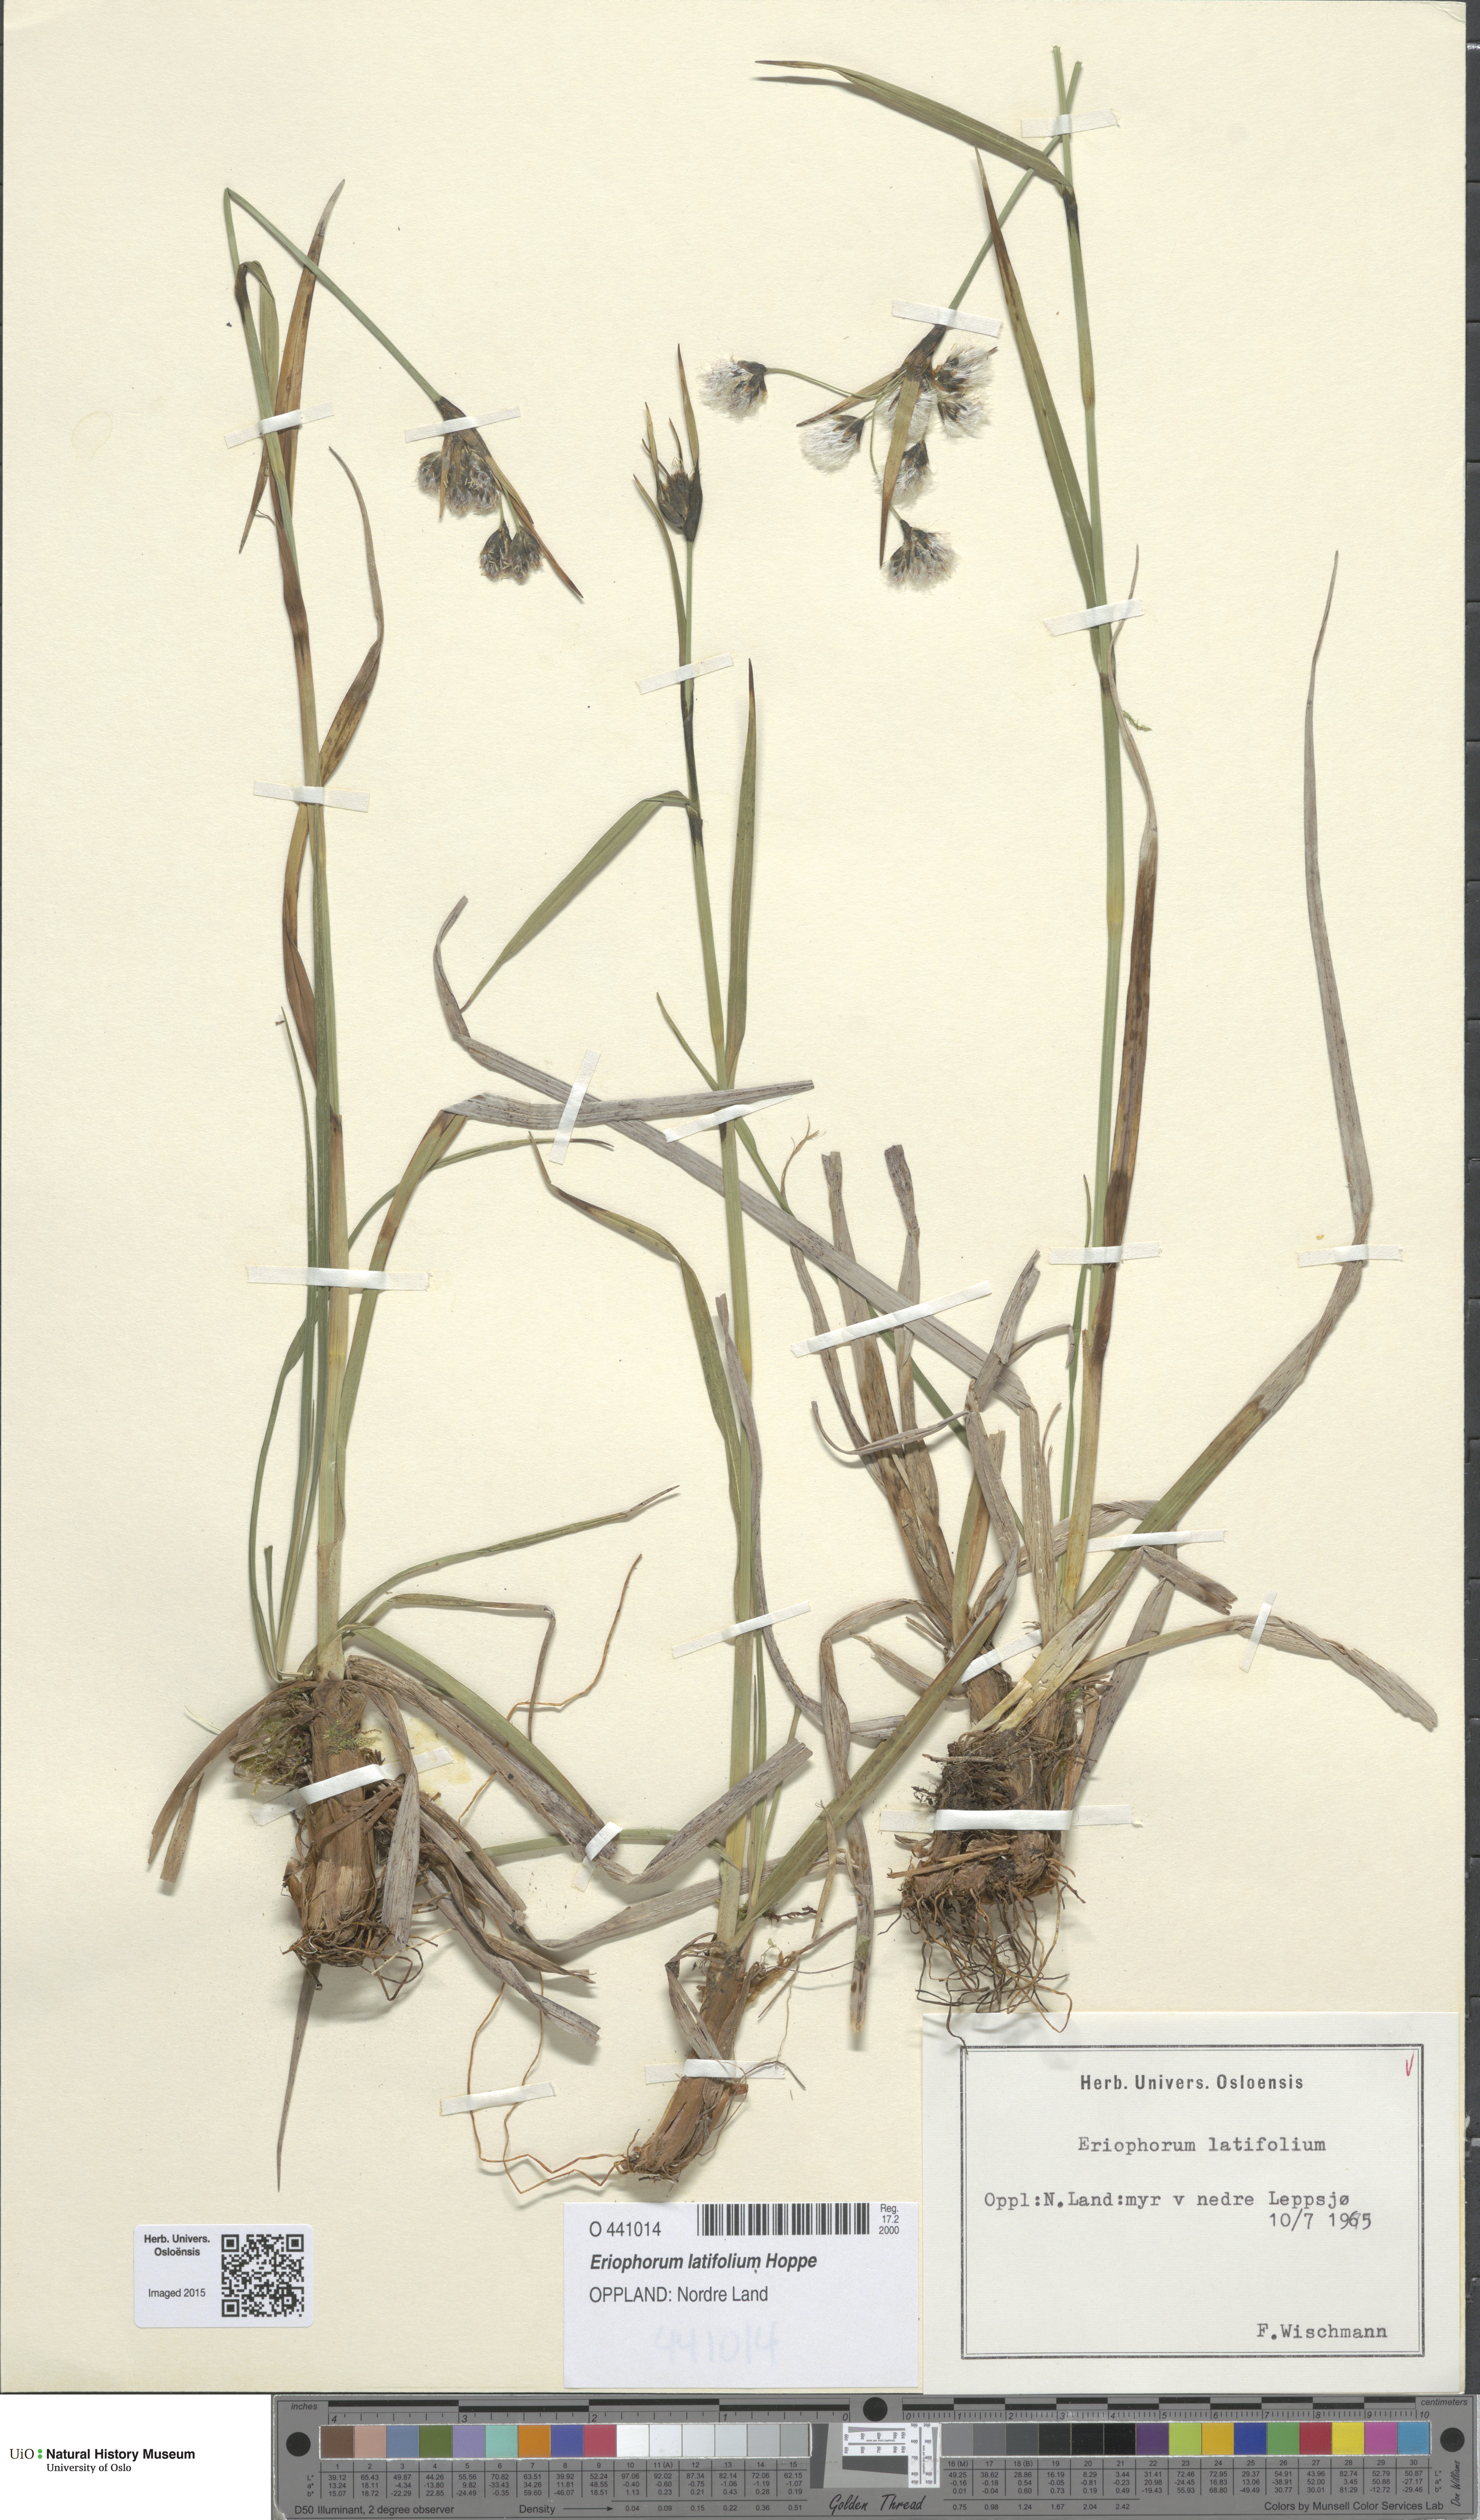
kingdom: Plantae
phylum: Tracheophyta
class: Liliopsida
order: Poales
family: Cyperaceae
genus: Eriophorum
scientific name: Eriophorum latifolium
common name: Broad-leaved cottongrass
